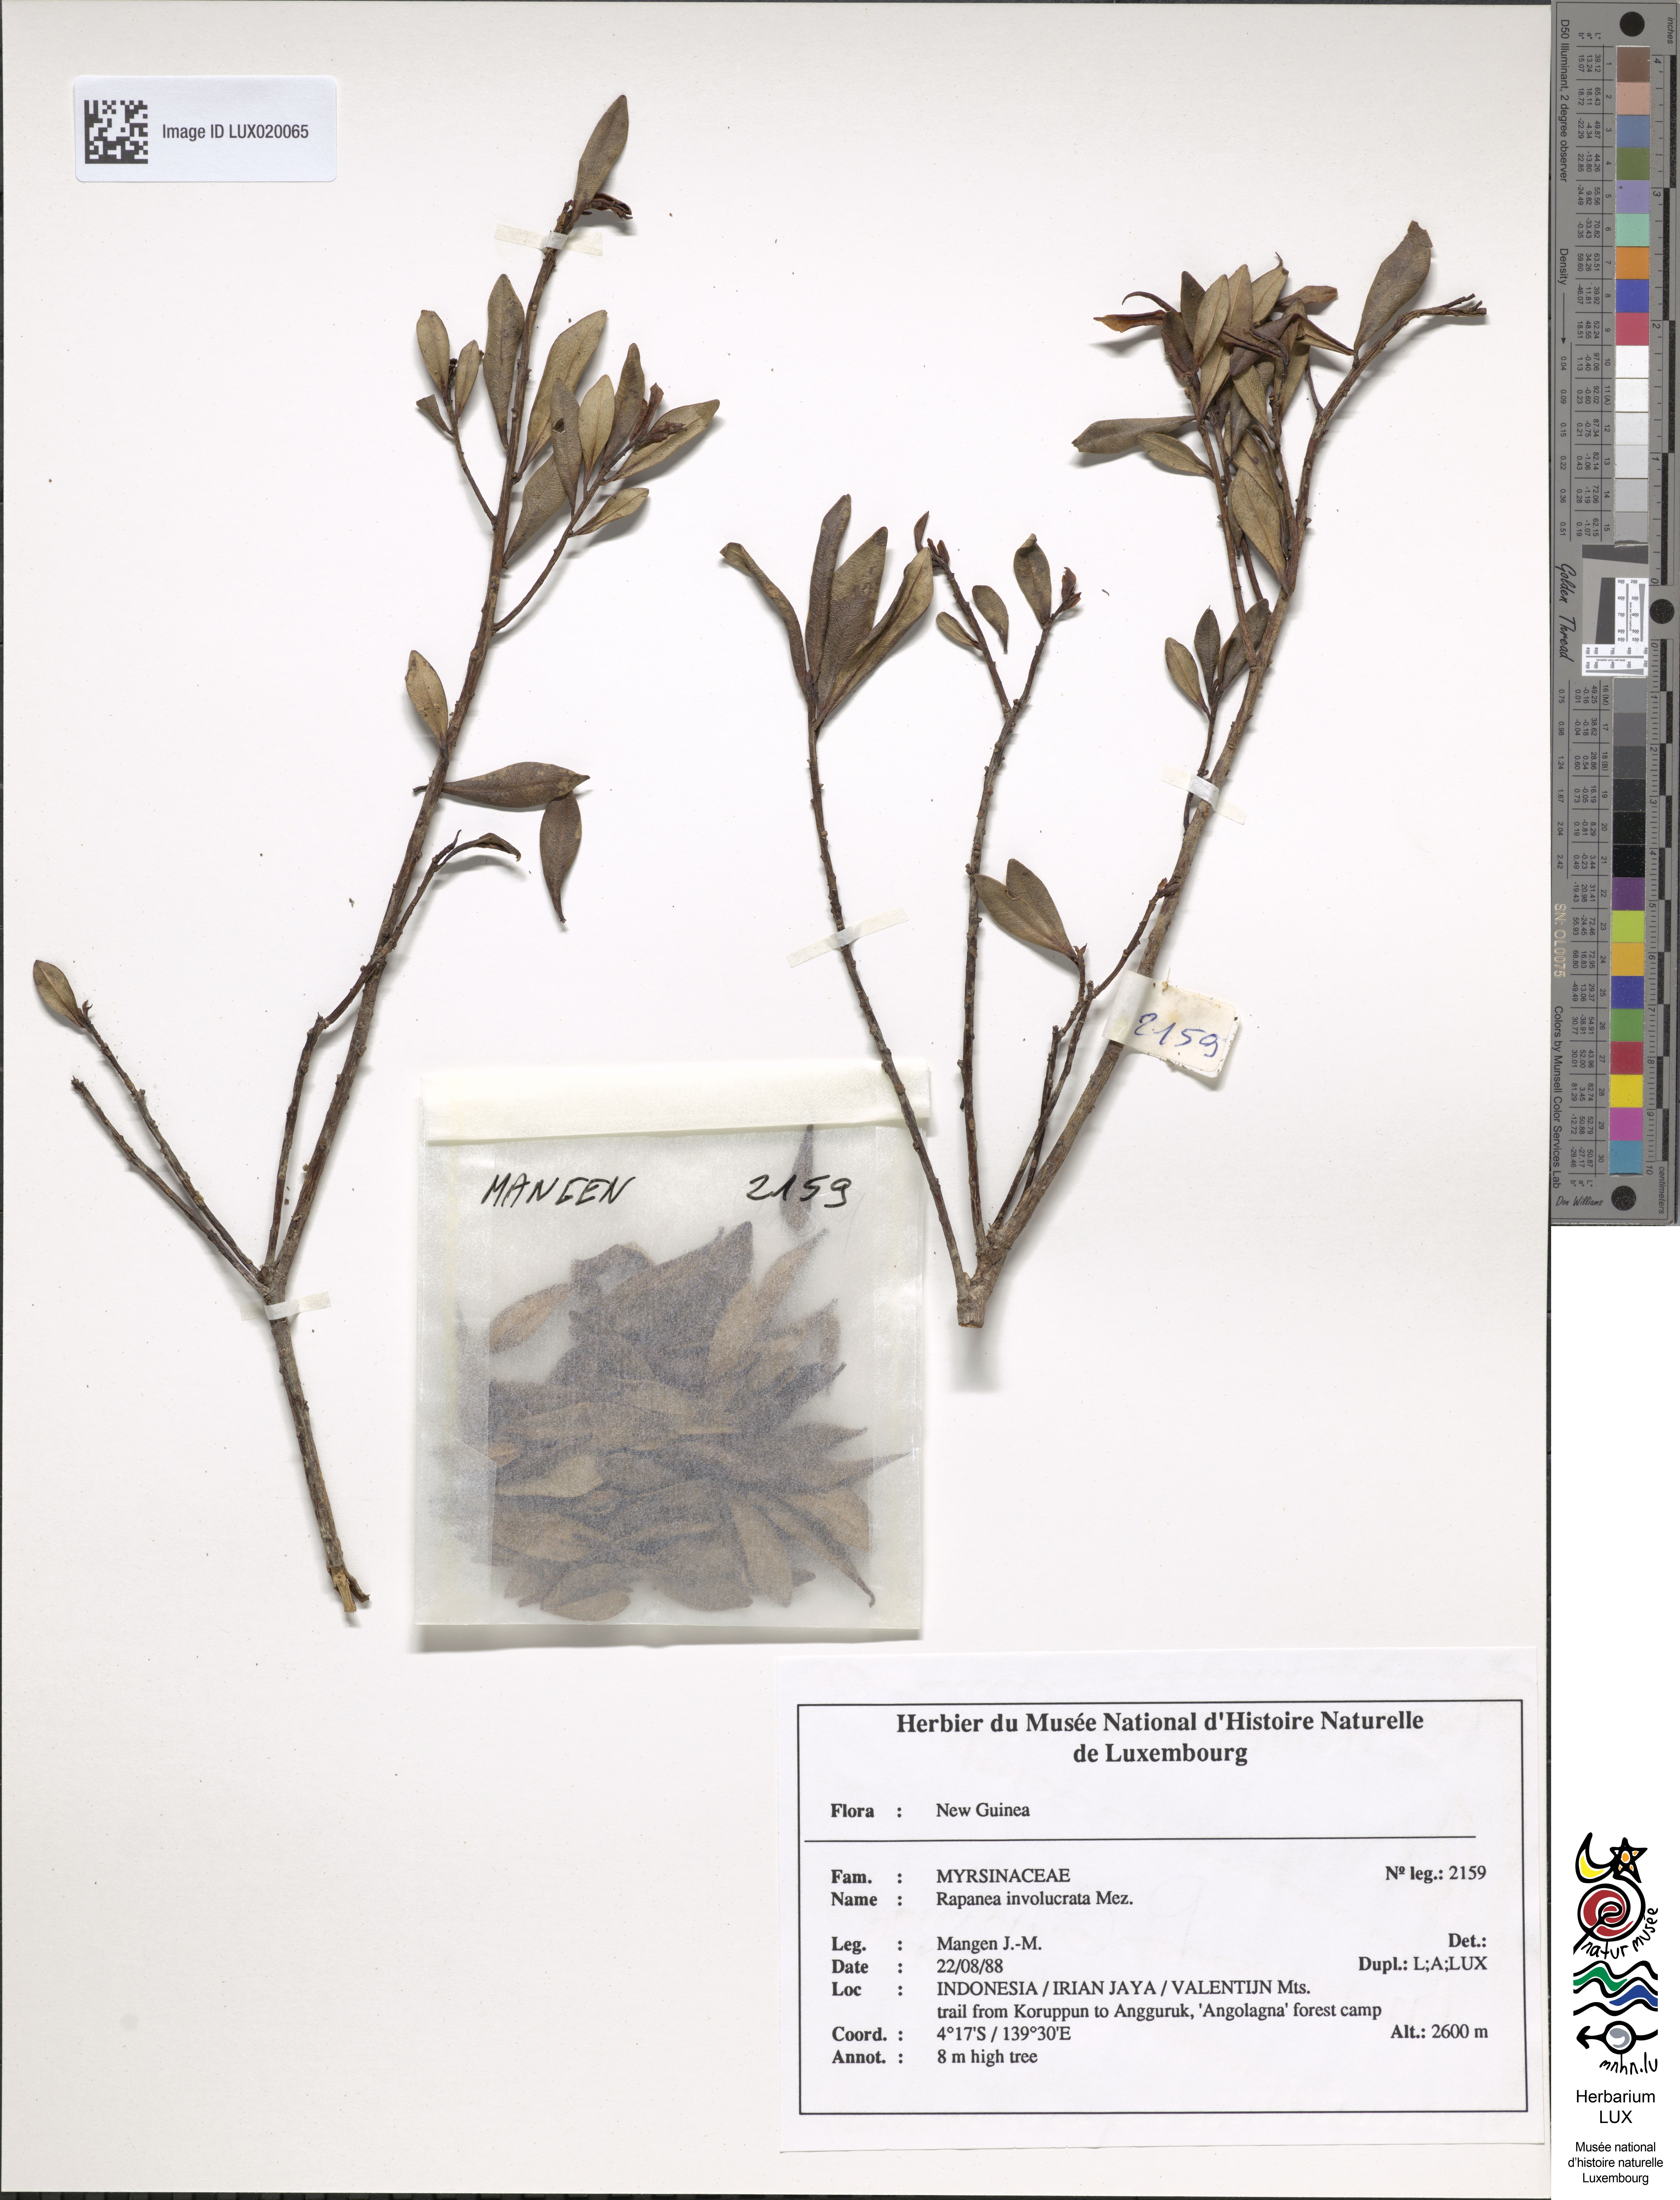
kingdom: Plantae
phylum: Tracheophyta
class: Magnoliopsida
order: Ericales
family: Primulaceae
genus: Myrsine
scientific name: Myrsine involucrata
